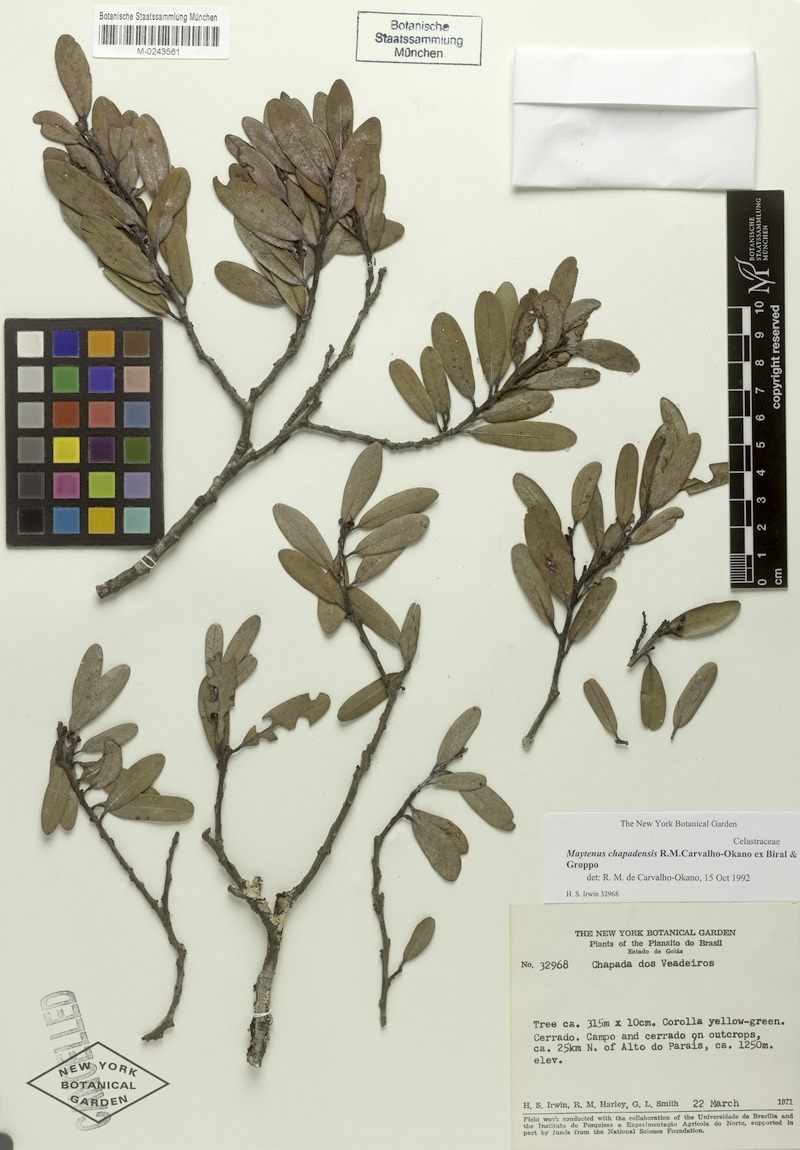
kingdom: Plantae
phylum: Tracheophyta
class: Magnoliopsida
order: Celastrales
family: Celastraceae
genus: Monteverdia
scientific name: Monteverdia chapadensis
